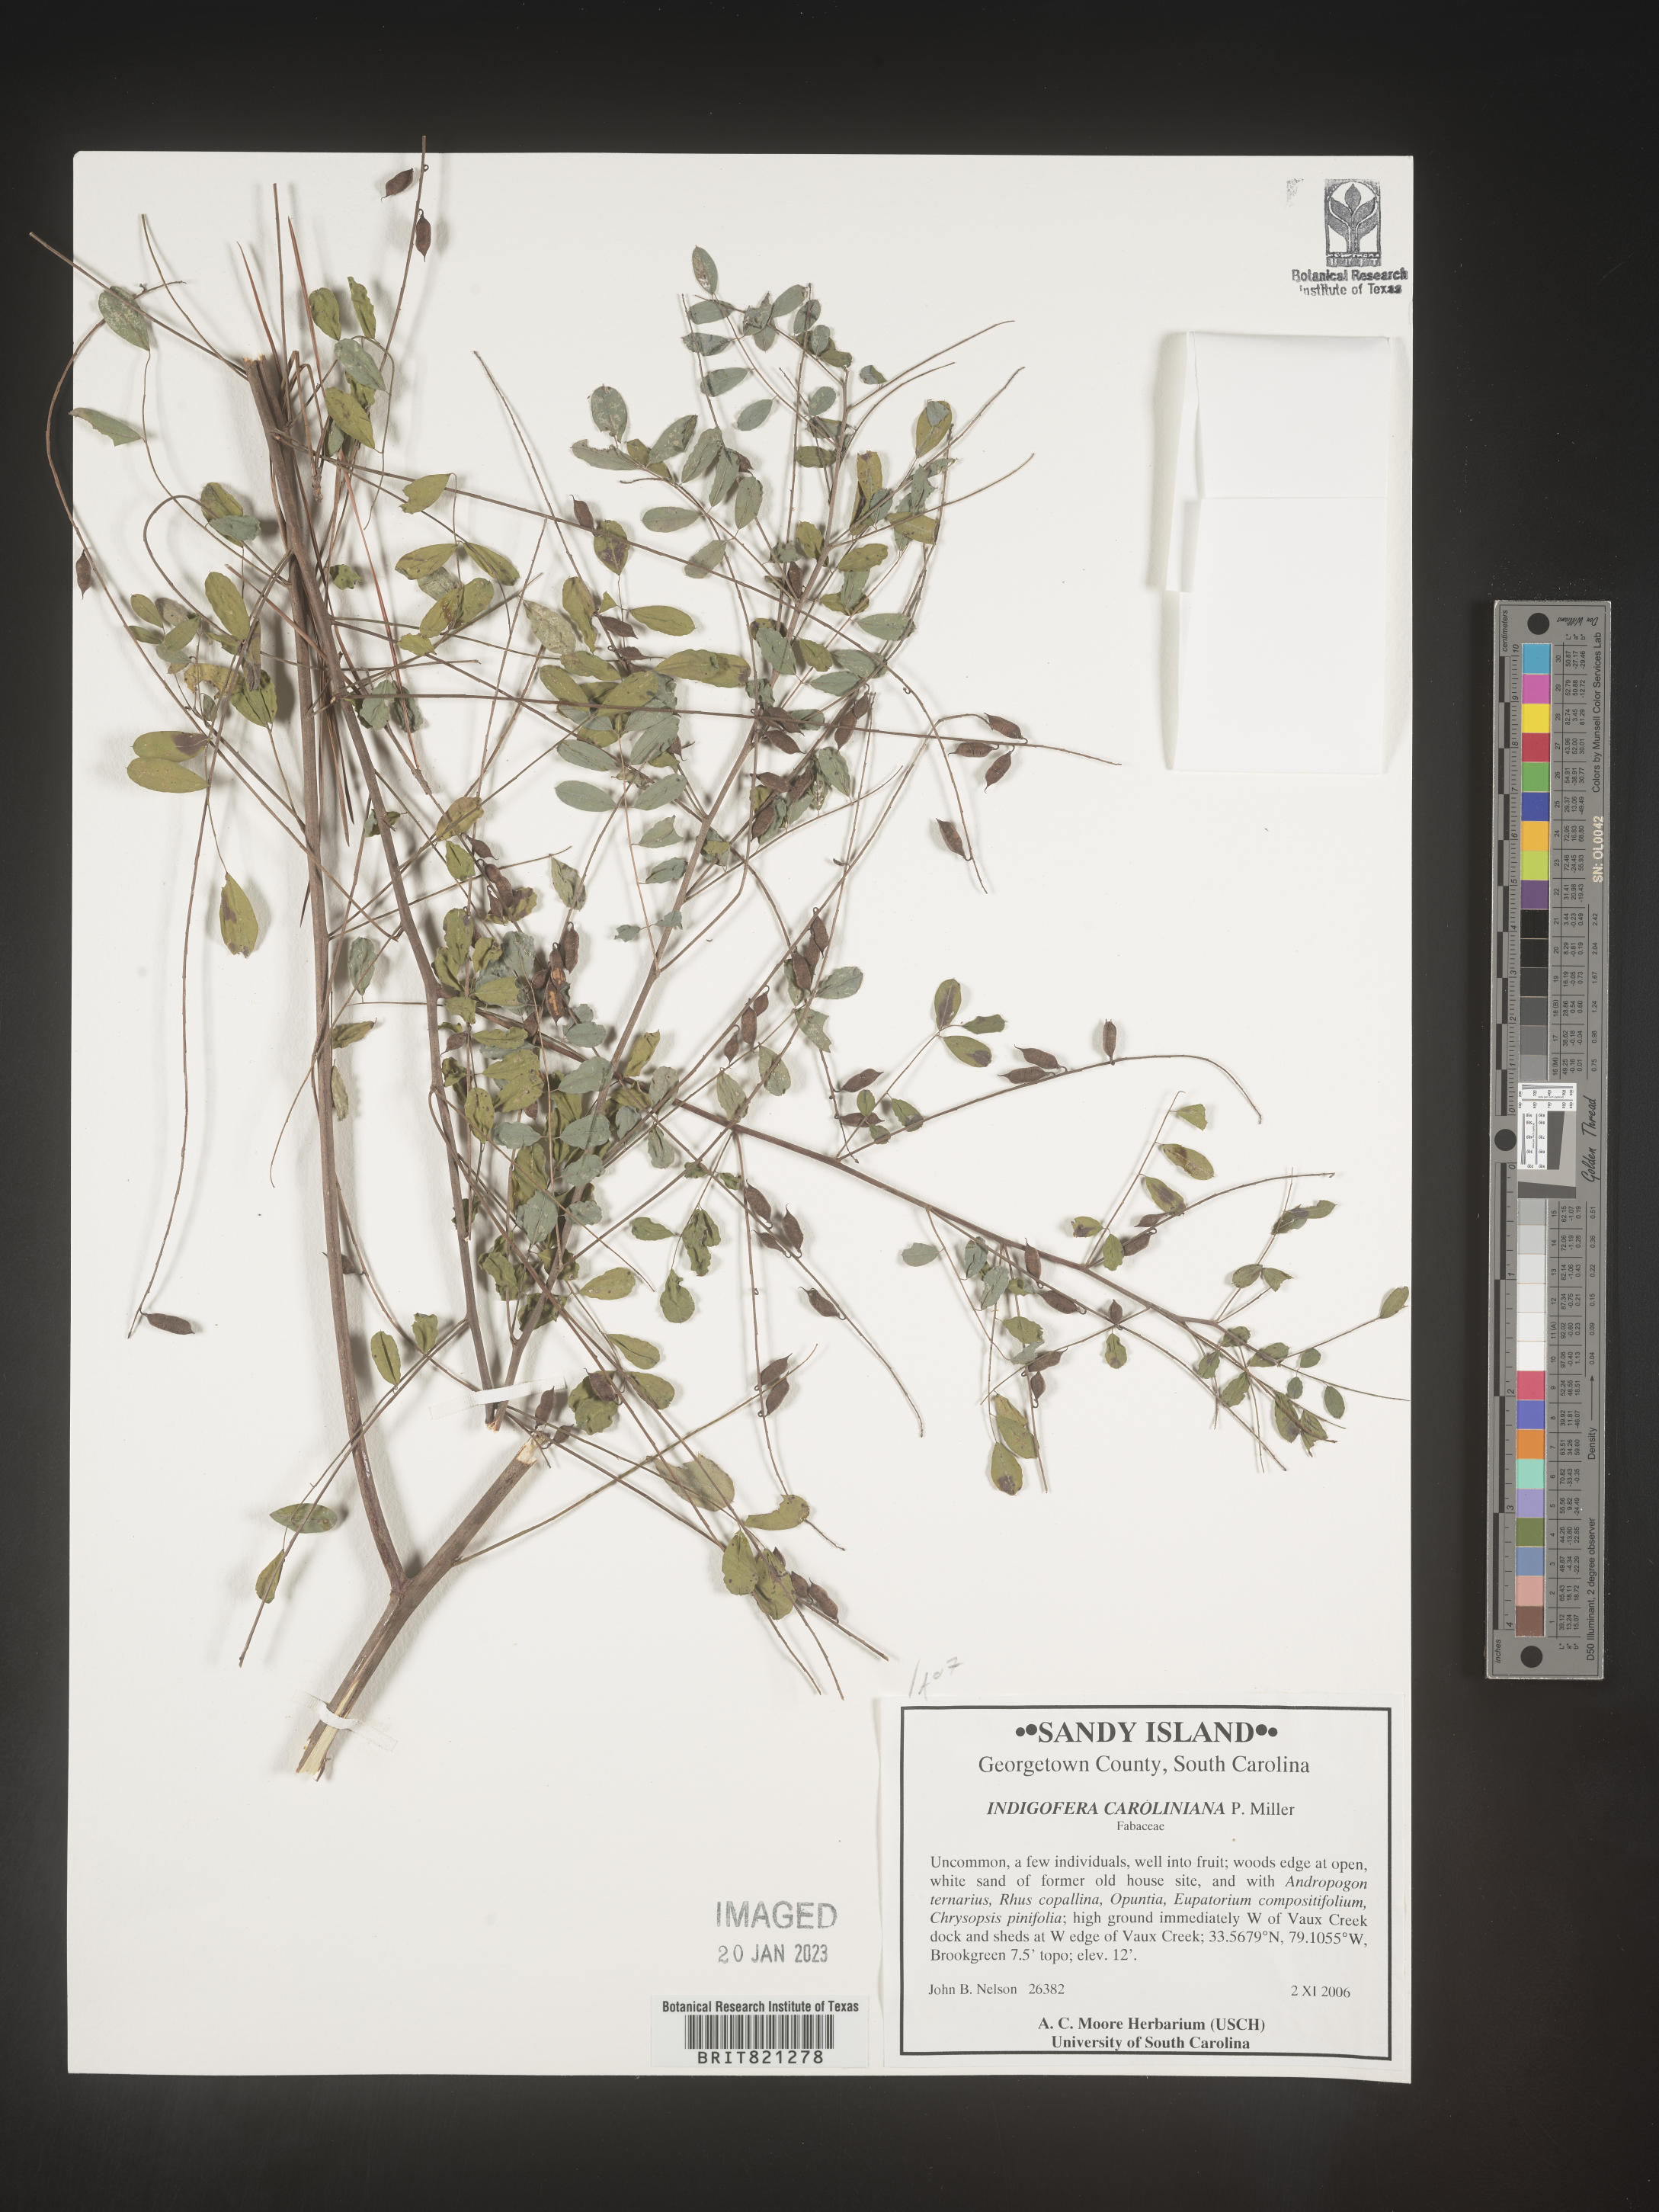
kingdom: Plantae
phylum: Tracheophyta
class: Magnoliopsida
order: Fabales
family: Fabaceae
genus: Indigofera
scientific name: Indigofera
